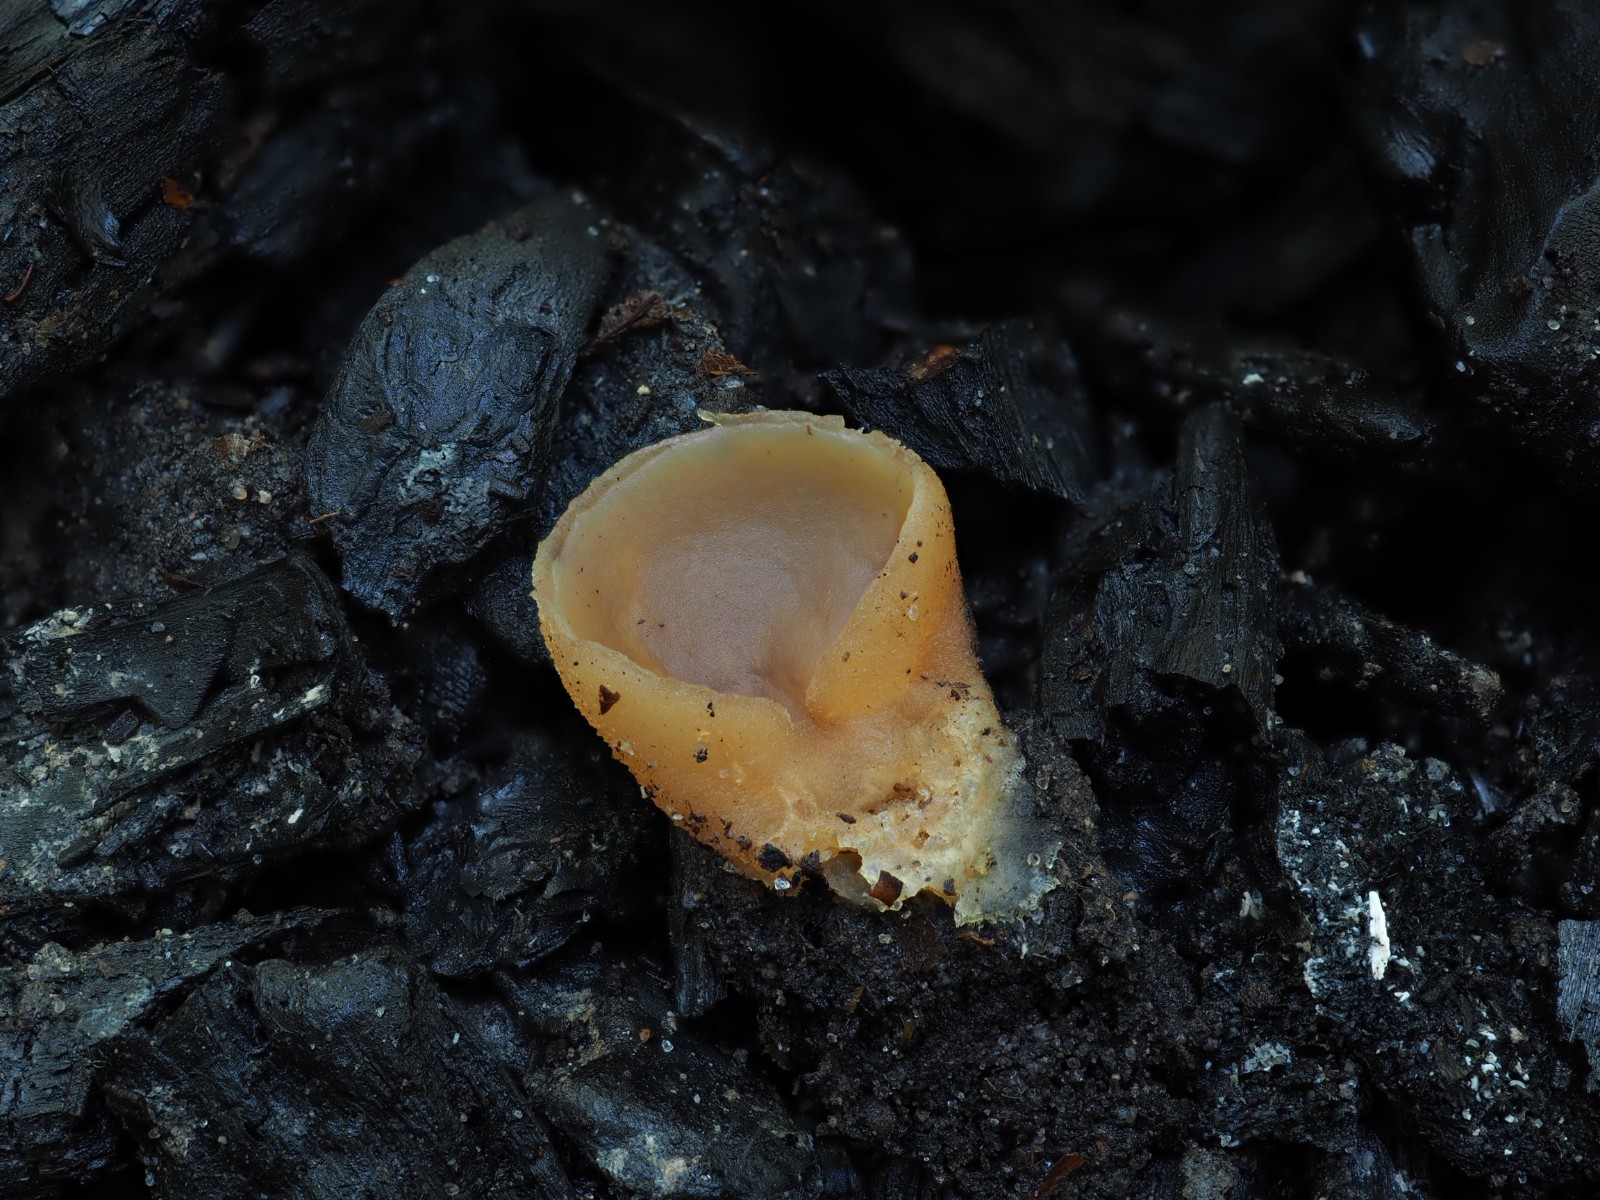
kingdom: Fungi
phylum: Ascomycota
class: Pezizomycetes
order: Pezizales
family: Pezizaceae
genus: Peziza
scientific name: Peziza
